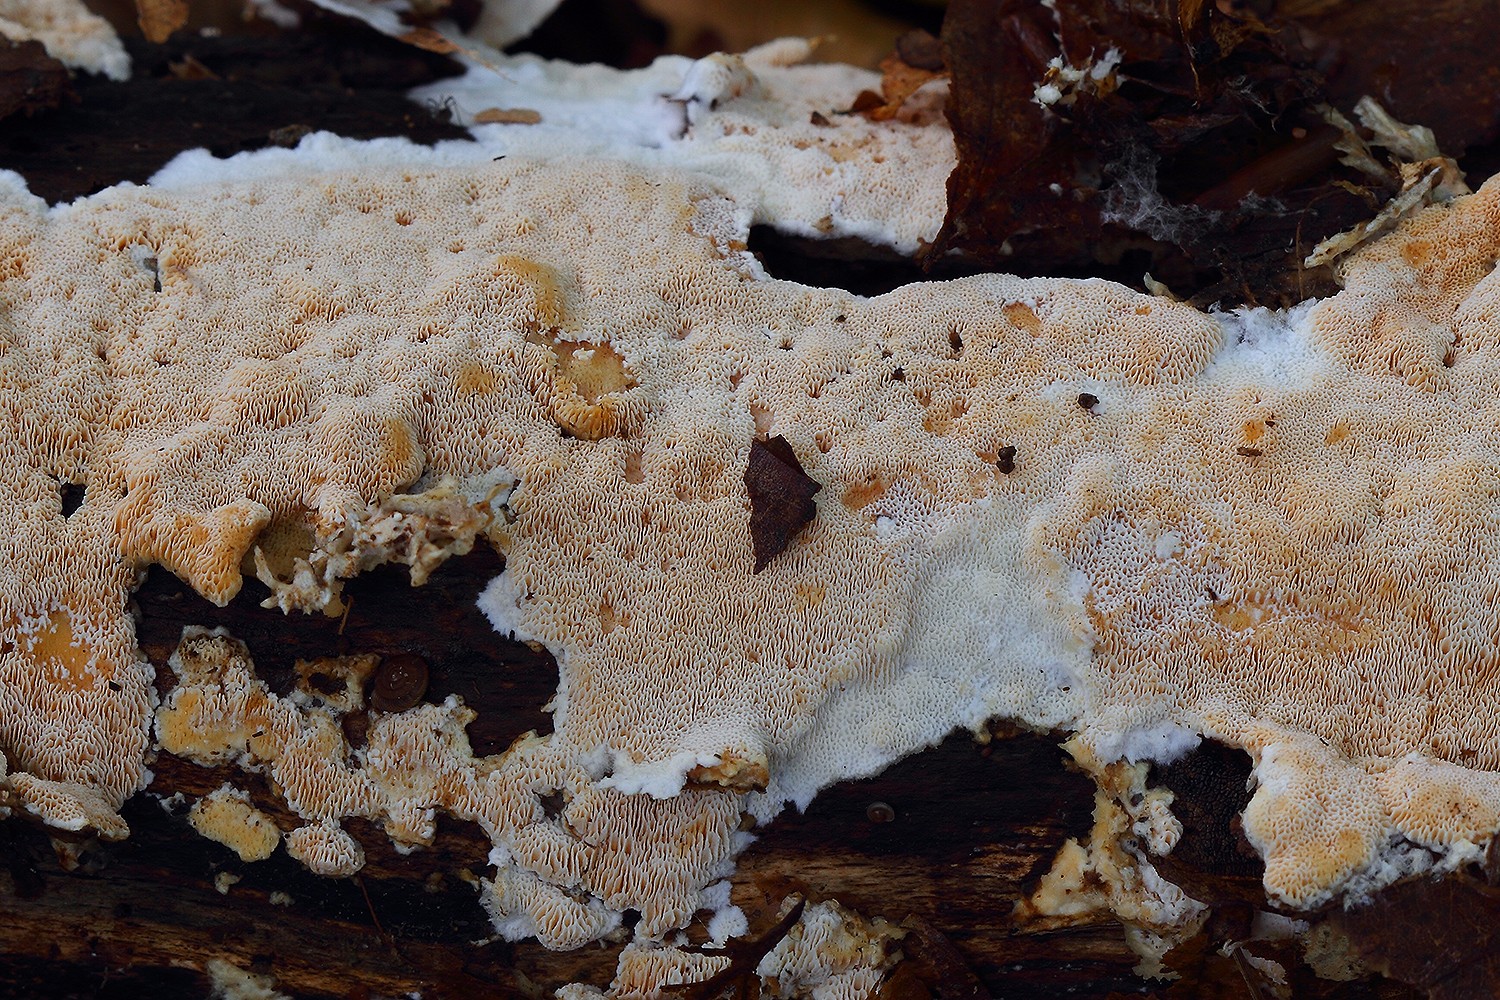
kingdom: Fungi
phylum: Basidiomycota
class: Agaricomycetes
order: Polyporales
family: Steccherinaceae
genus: Junghuhnia
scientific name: Junghuhnia nitida
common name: almindelig skønporesvamp
